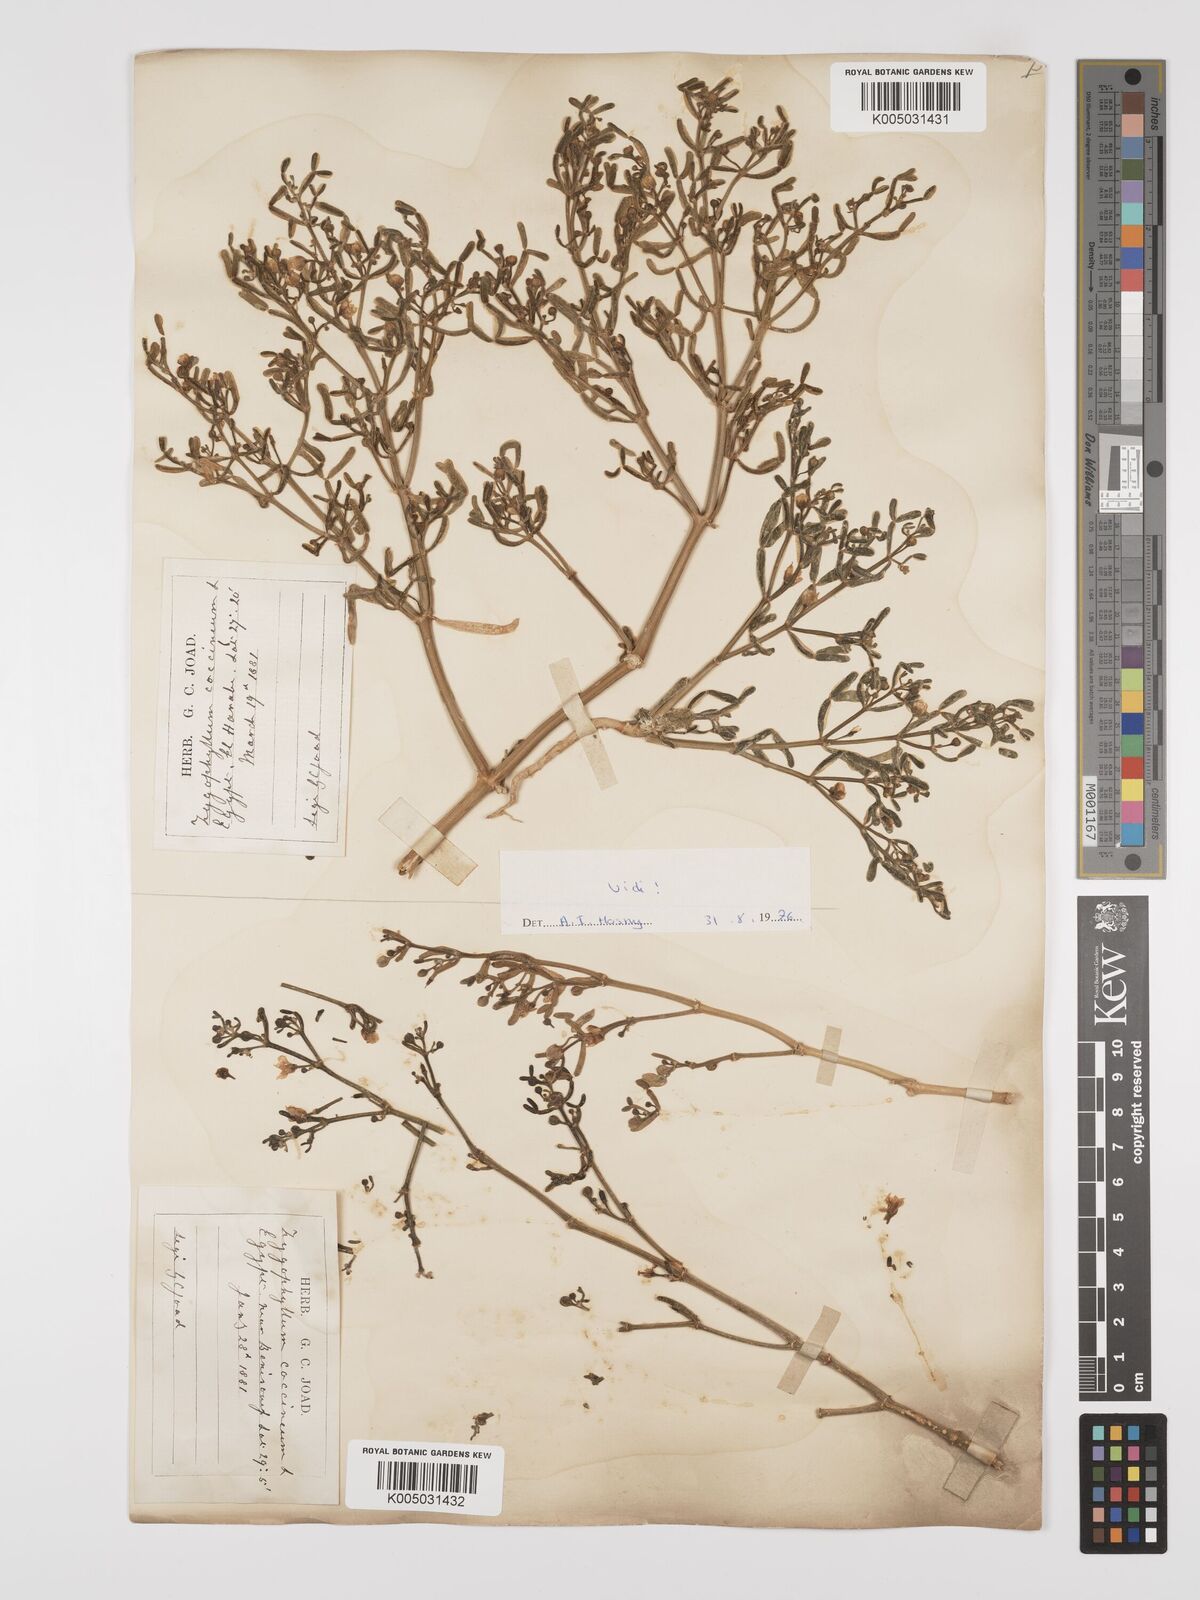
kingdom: Plantae
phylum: Tracheophyta
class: Magnoliopsida
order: Zygophyllales
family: Zygophyllaceae
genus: Zygophyllum
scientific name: Zygophyllum
